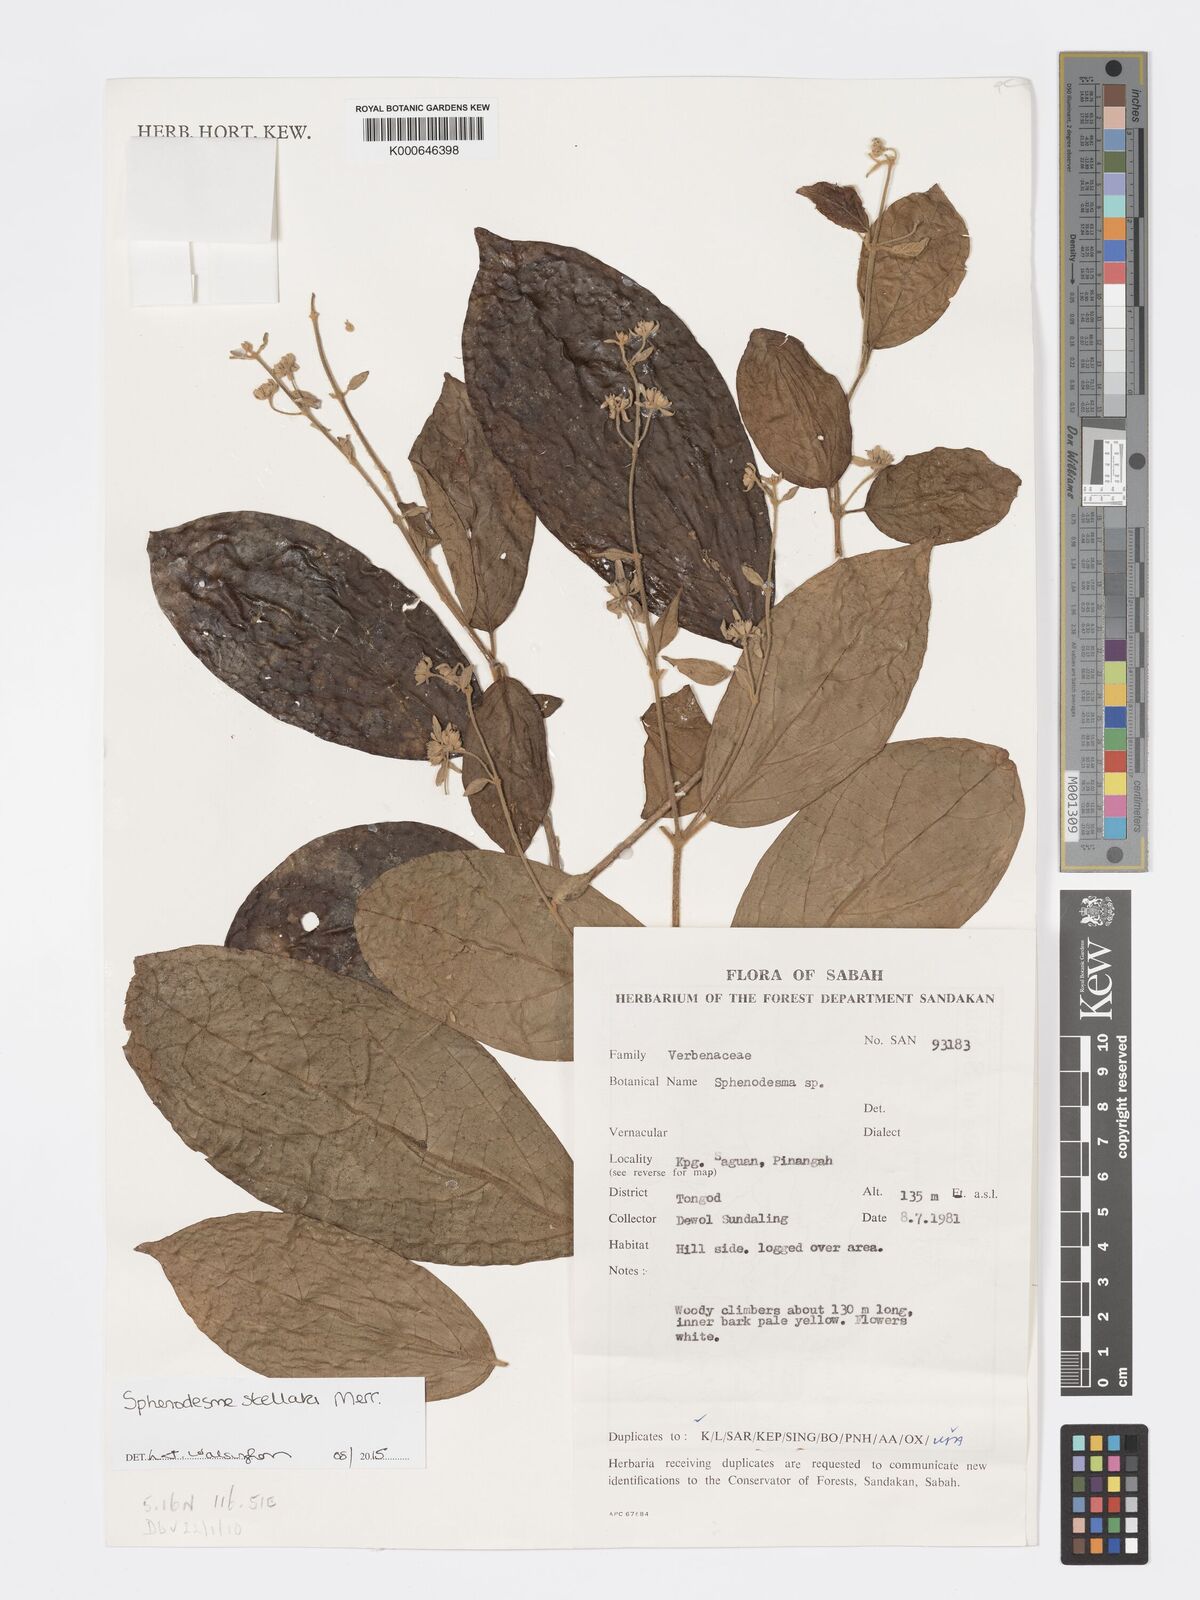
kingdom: Plantae
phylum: Tracheophyta
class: Magnoliopsida
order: Lamiales
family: Lamiaceae
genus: Sphenodesme
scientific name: Sphenodesme stellata
